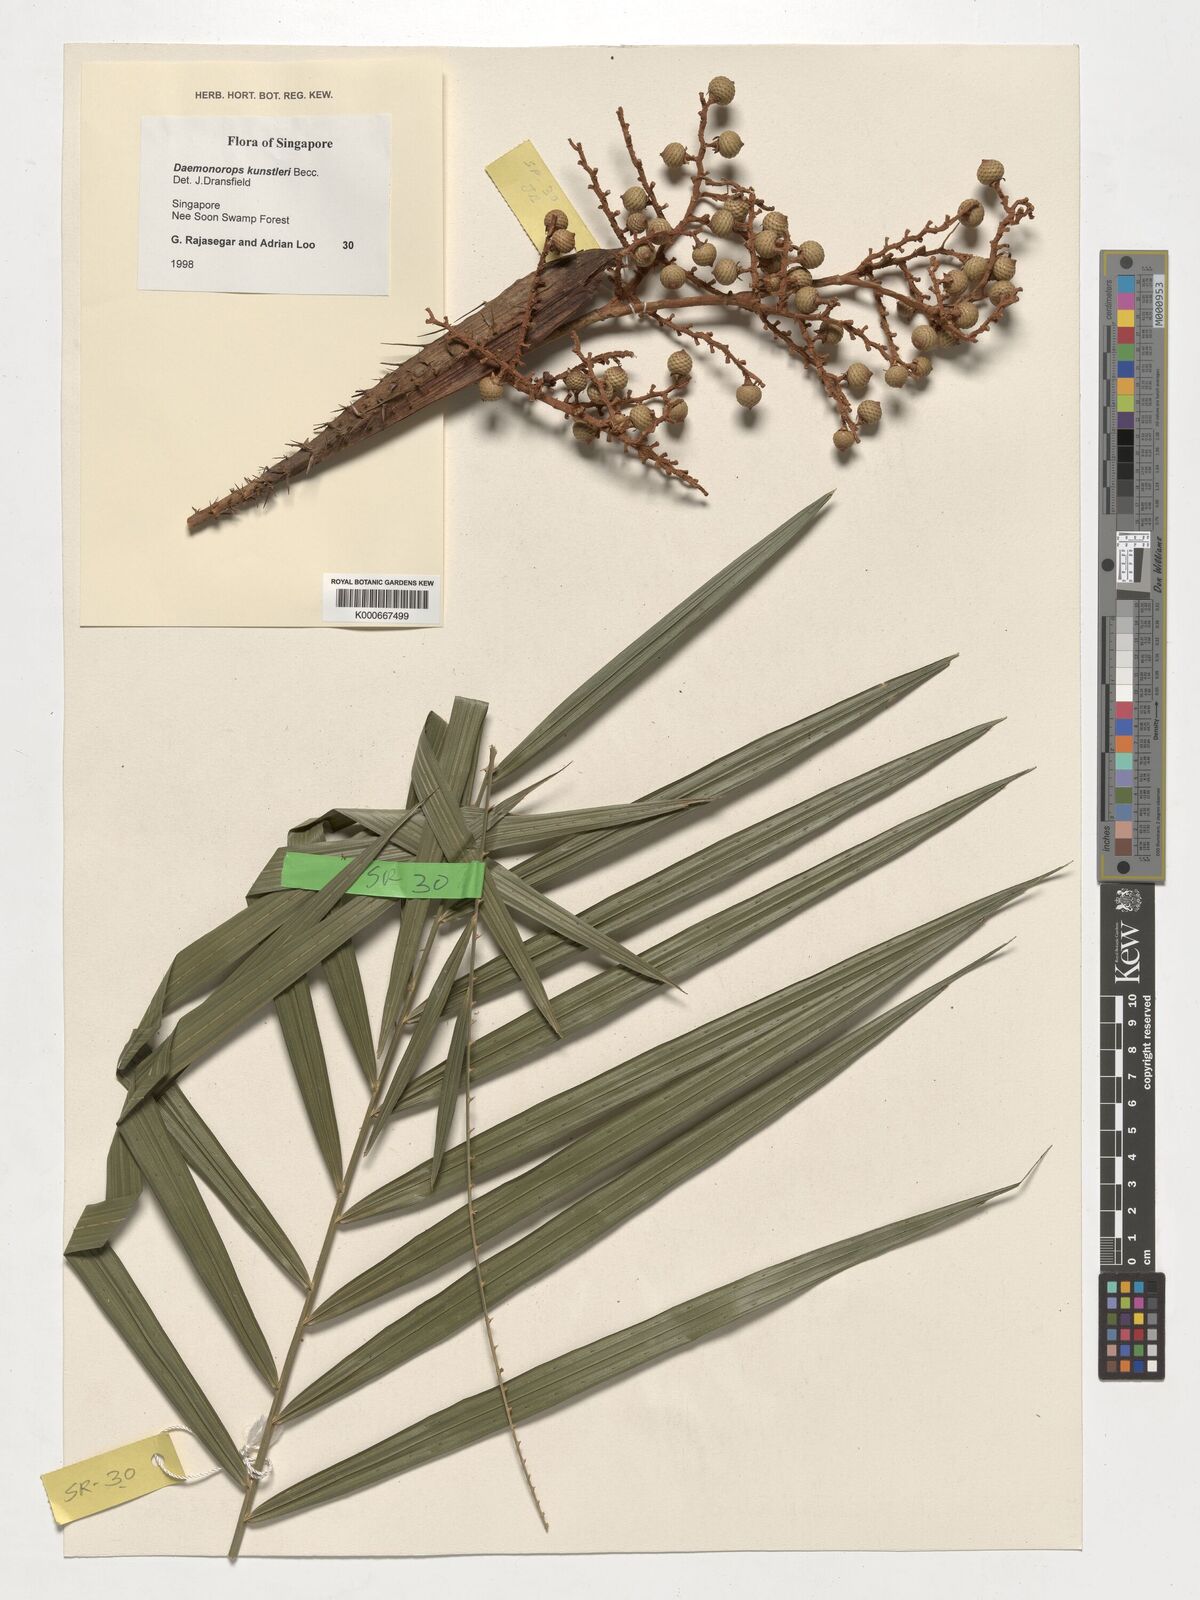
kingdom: Plantae
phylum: Tracheophyta
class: Liliopsida
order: Arecales
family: Arecaceae
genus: Calamus
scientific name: Calamus kunstleri
